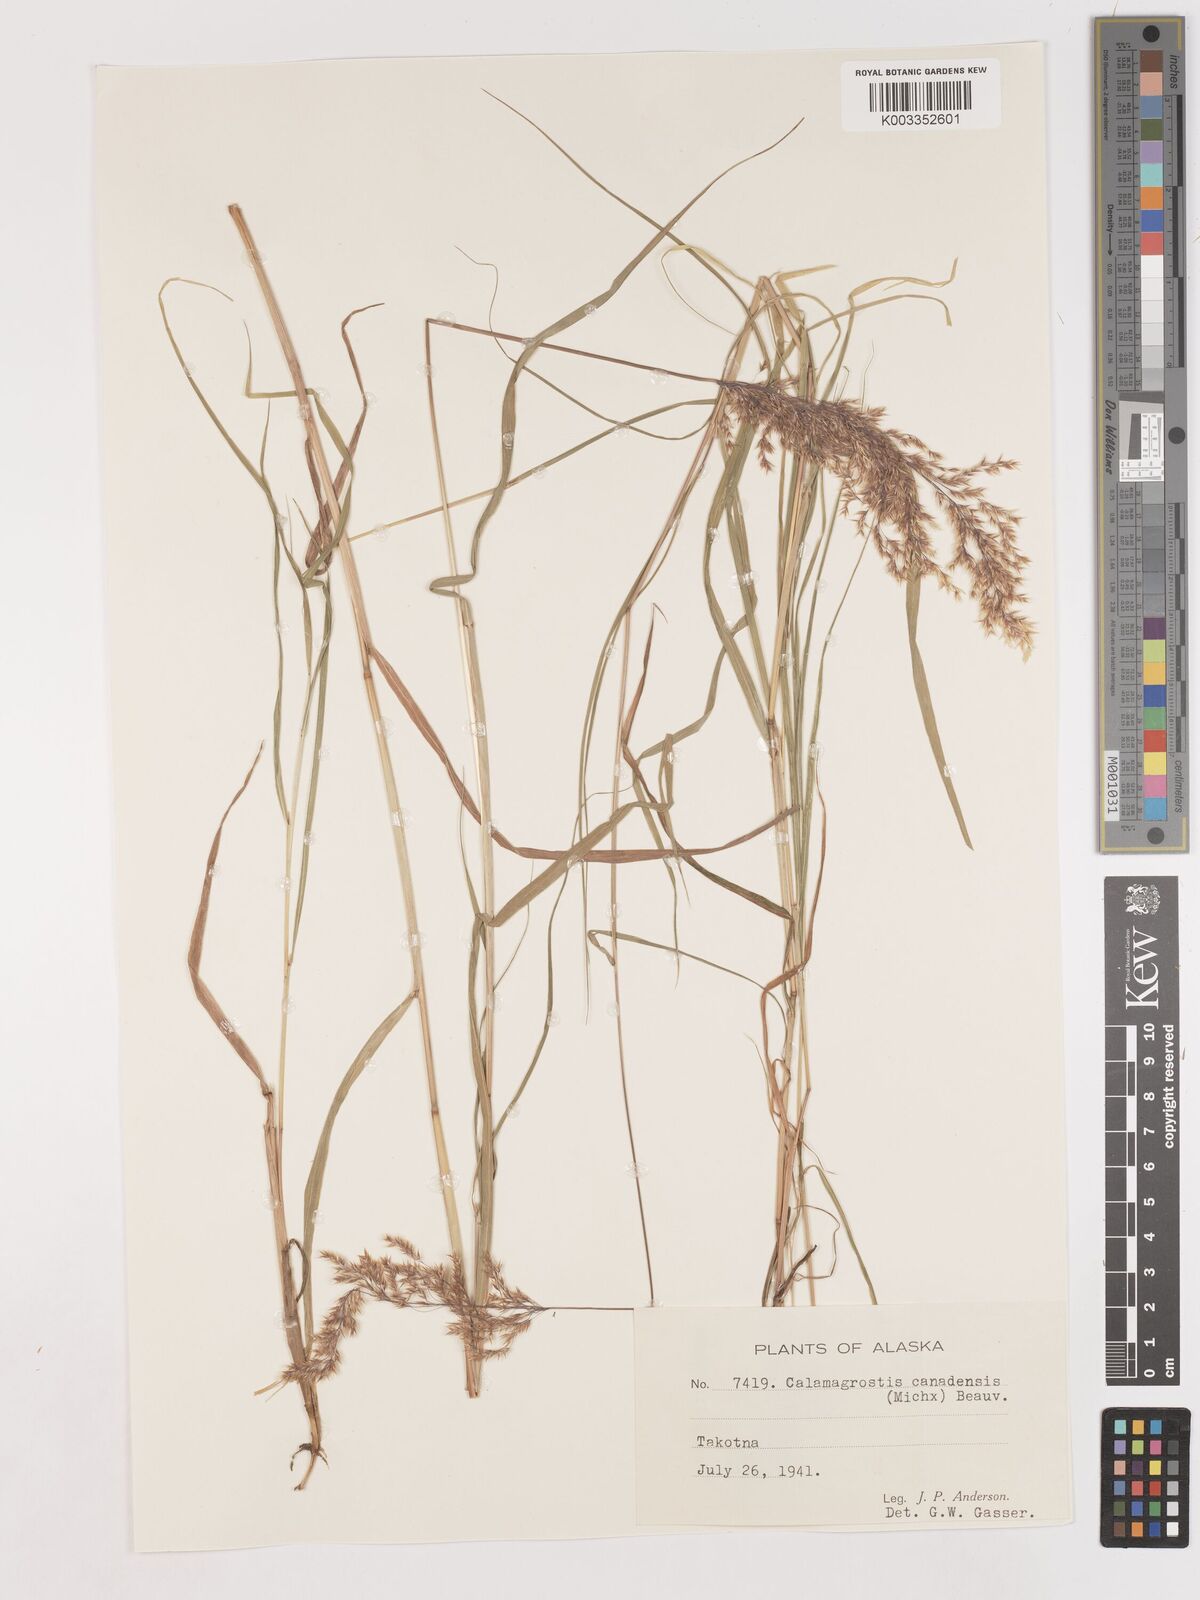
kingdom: Plantae
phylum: Tracheophyta
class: Liliopsida
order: Poales
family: Poaceae
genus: Calamagrostis
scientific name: Calamagrostis canadensis
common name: Canada bluejoint
